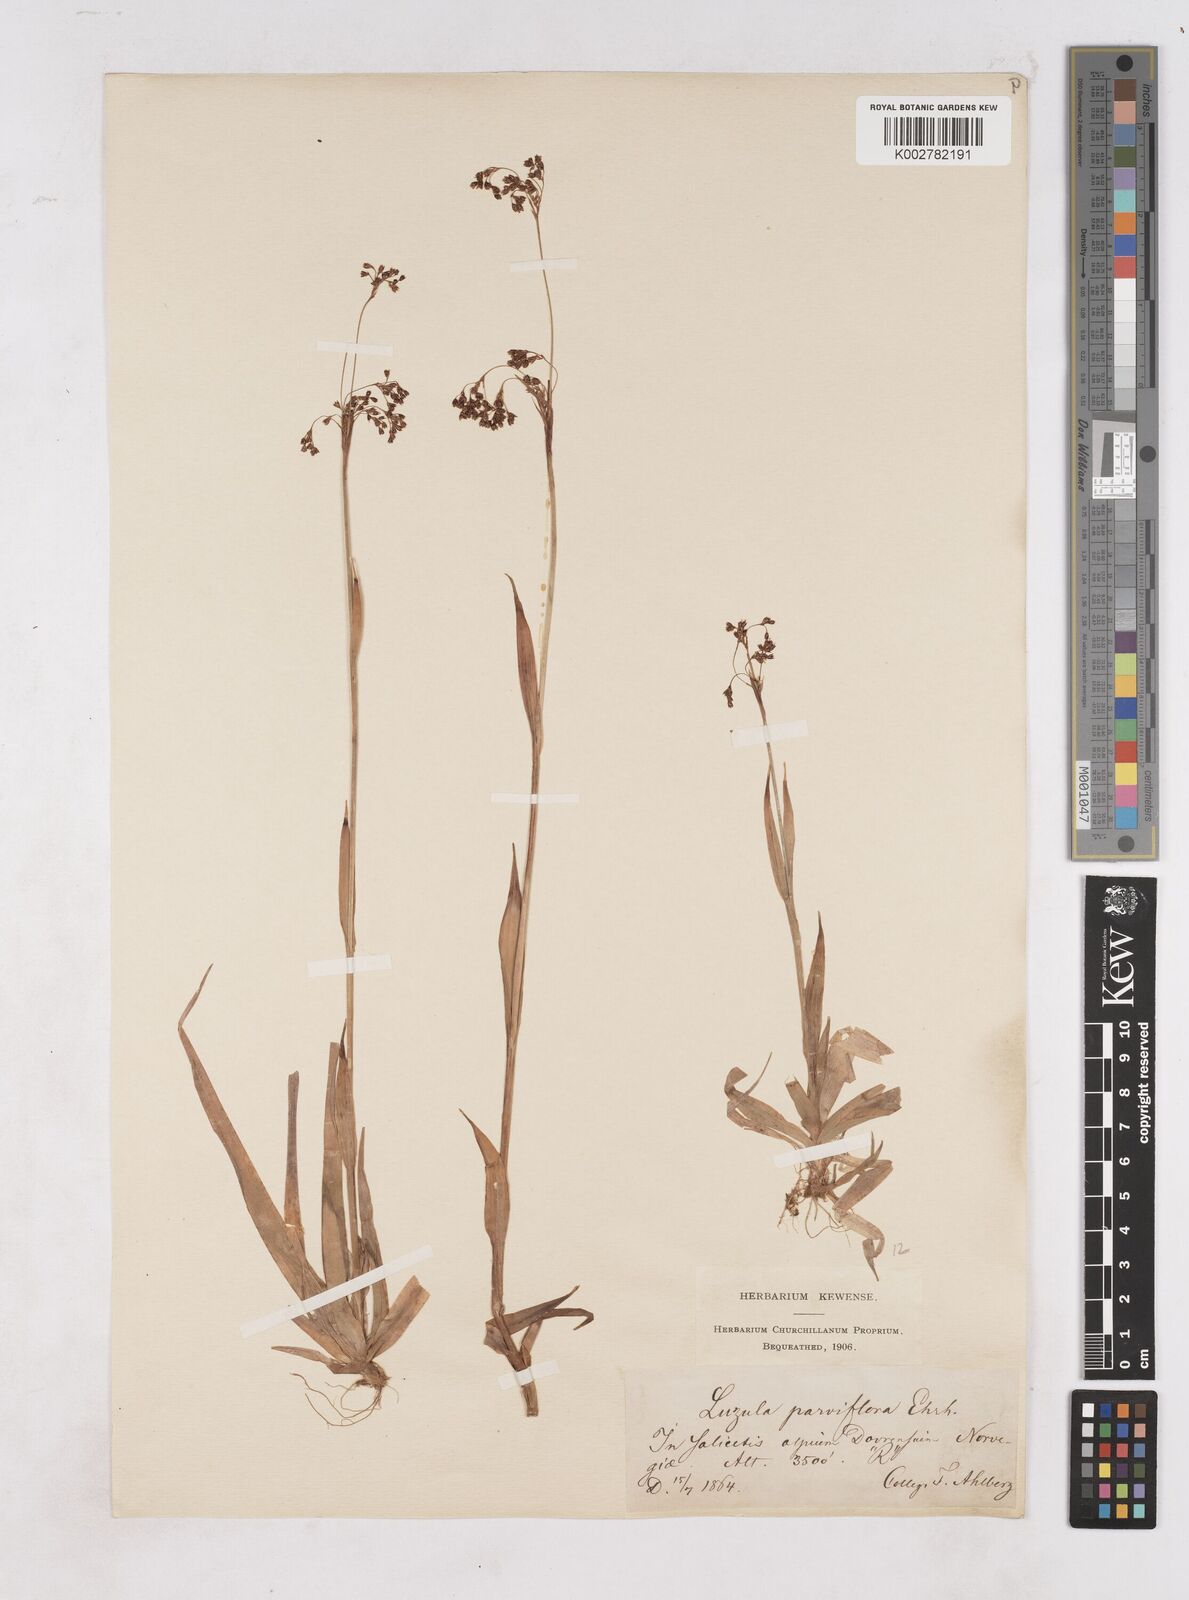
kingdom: Plantae
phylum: Tracheophyta
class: Liliopsida
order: Poales
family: Juncaceae
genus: Luzula
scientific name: Luzula parviflora
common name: Millet woodrush
